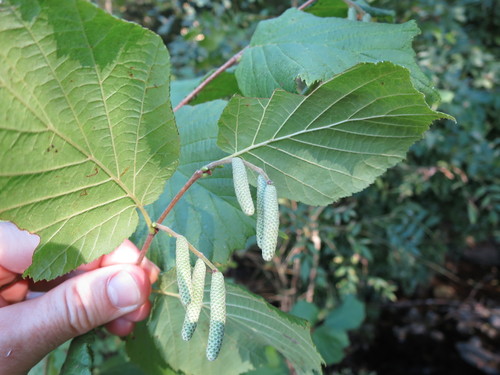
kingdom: Plantae
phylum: Tracheophyta
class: Magnoliopsida
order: Fagales
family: Betulaceae
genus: Corylus
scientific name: Corylus avellana
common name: European hazel
